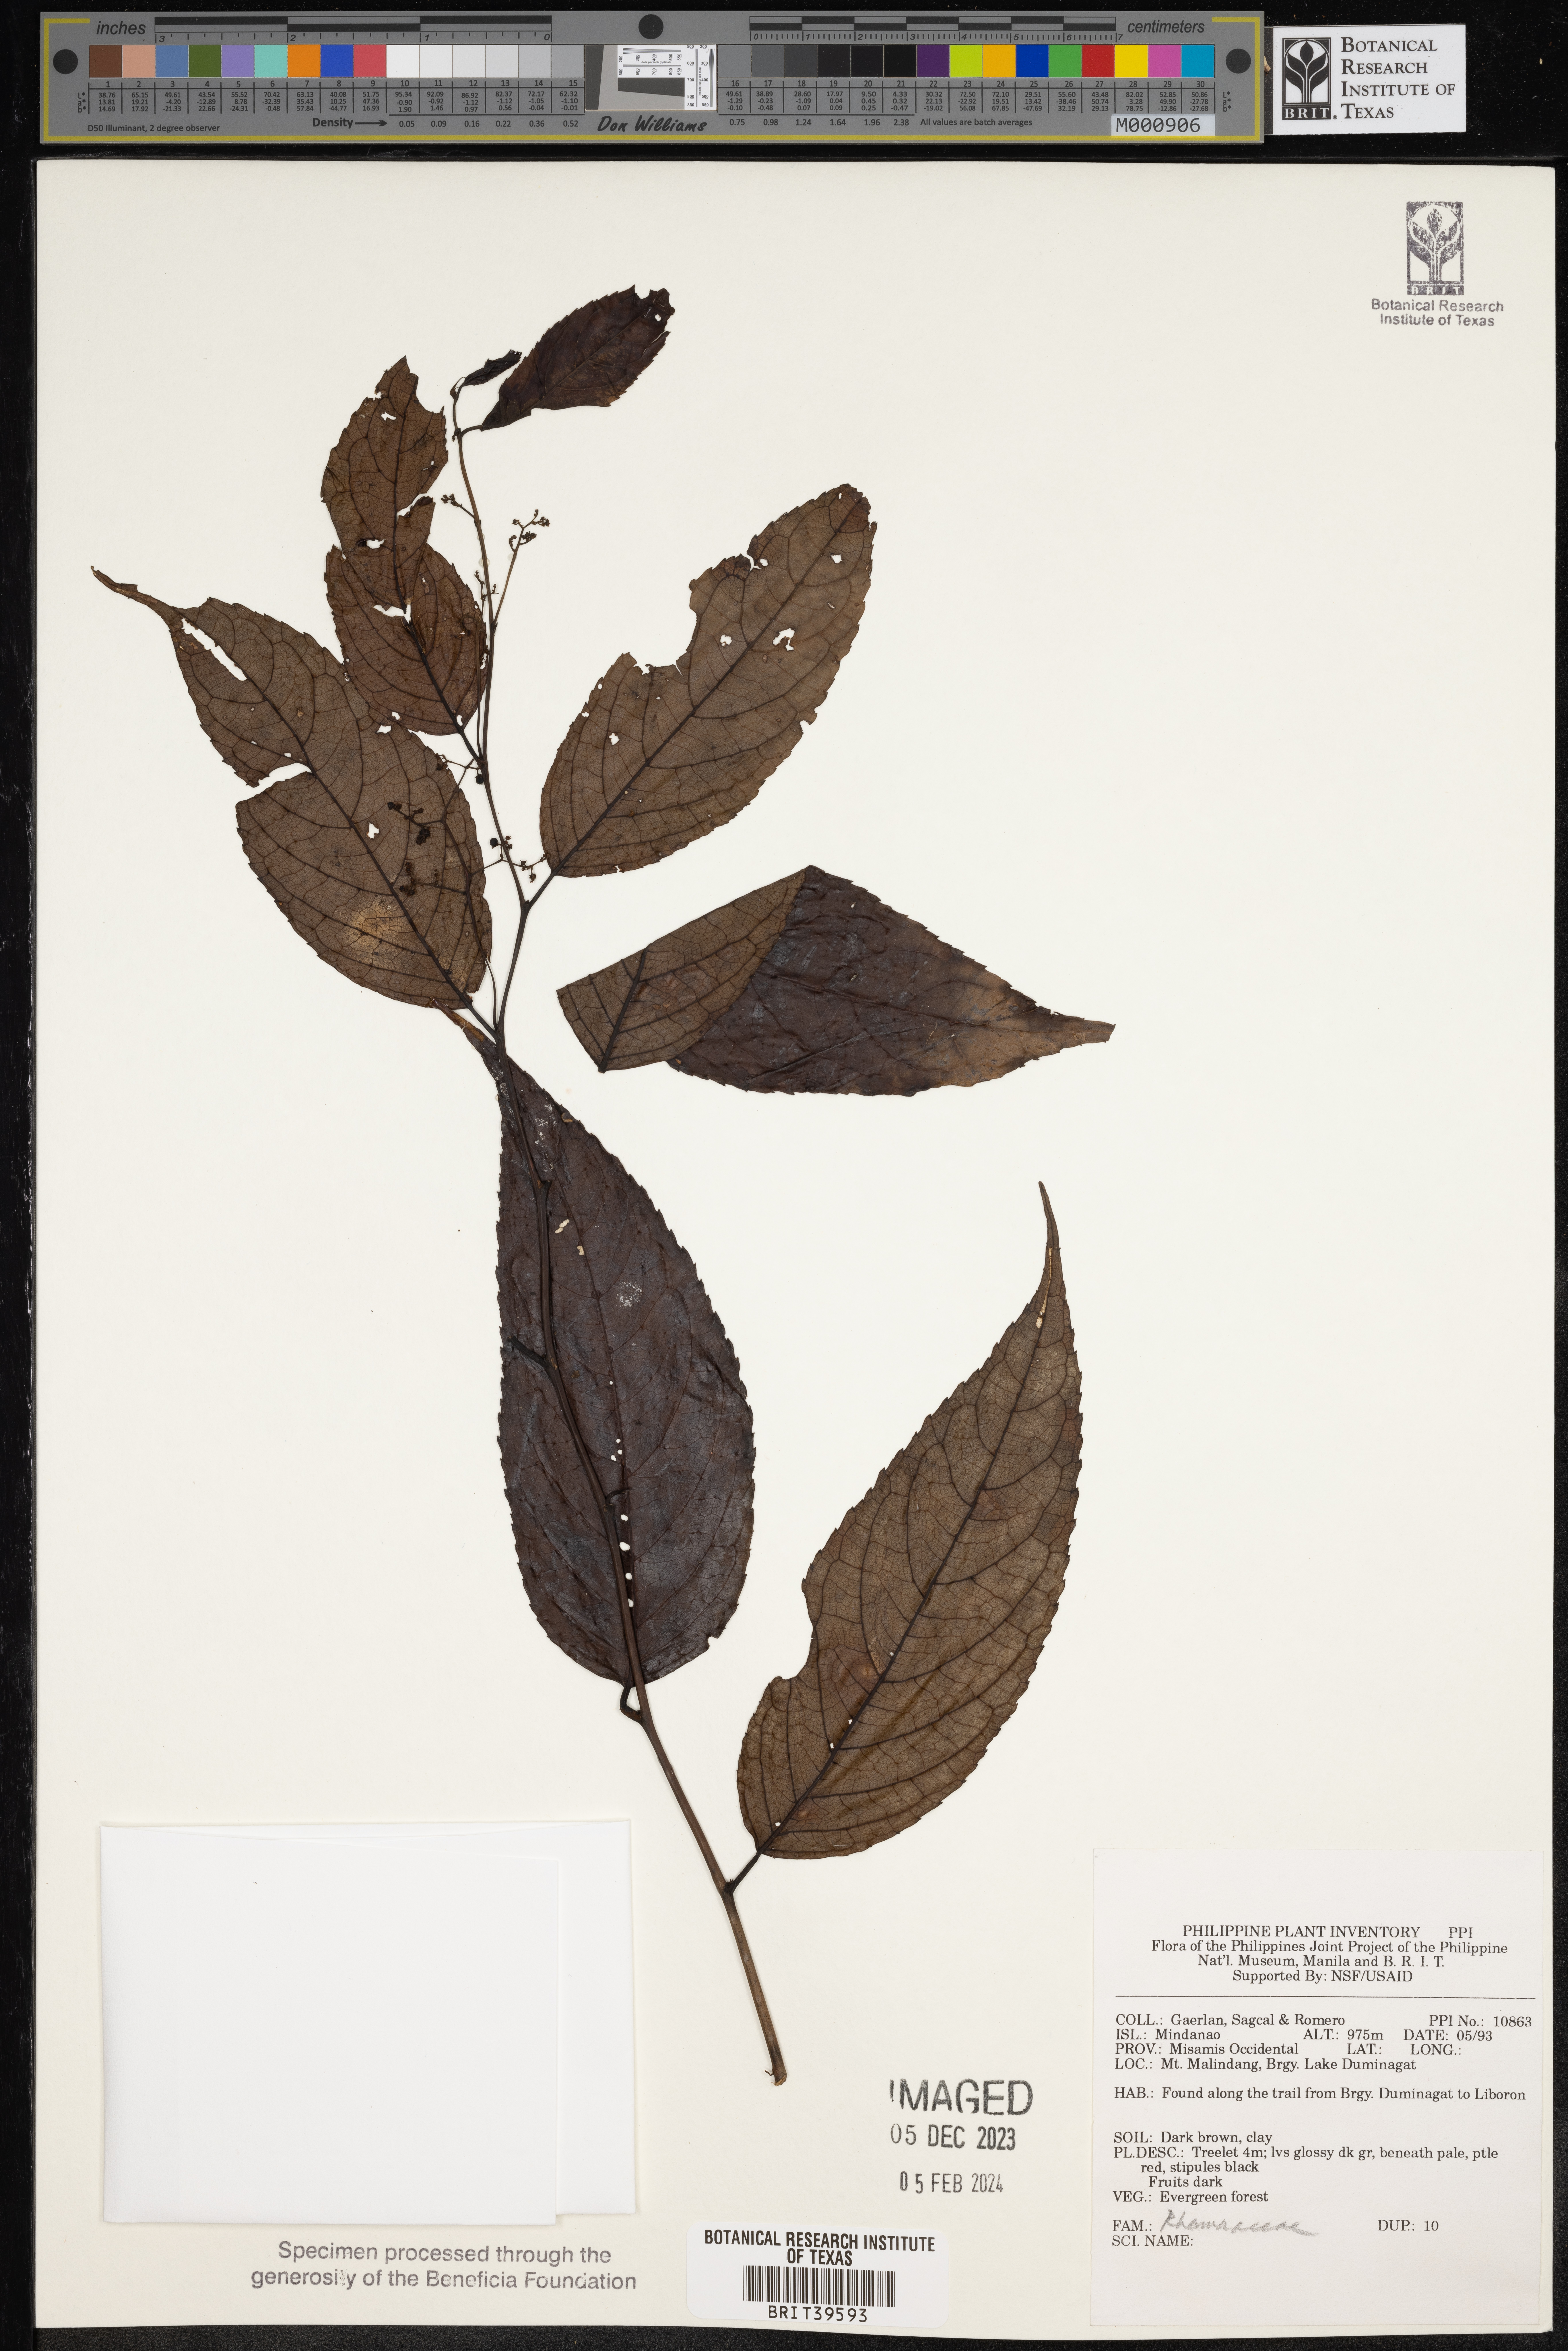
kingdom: Plantae
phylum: Tracheophyta
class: Magnoliopsida
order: Rosales
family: Rhamnaceae
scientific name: Rhamnaceae
